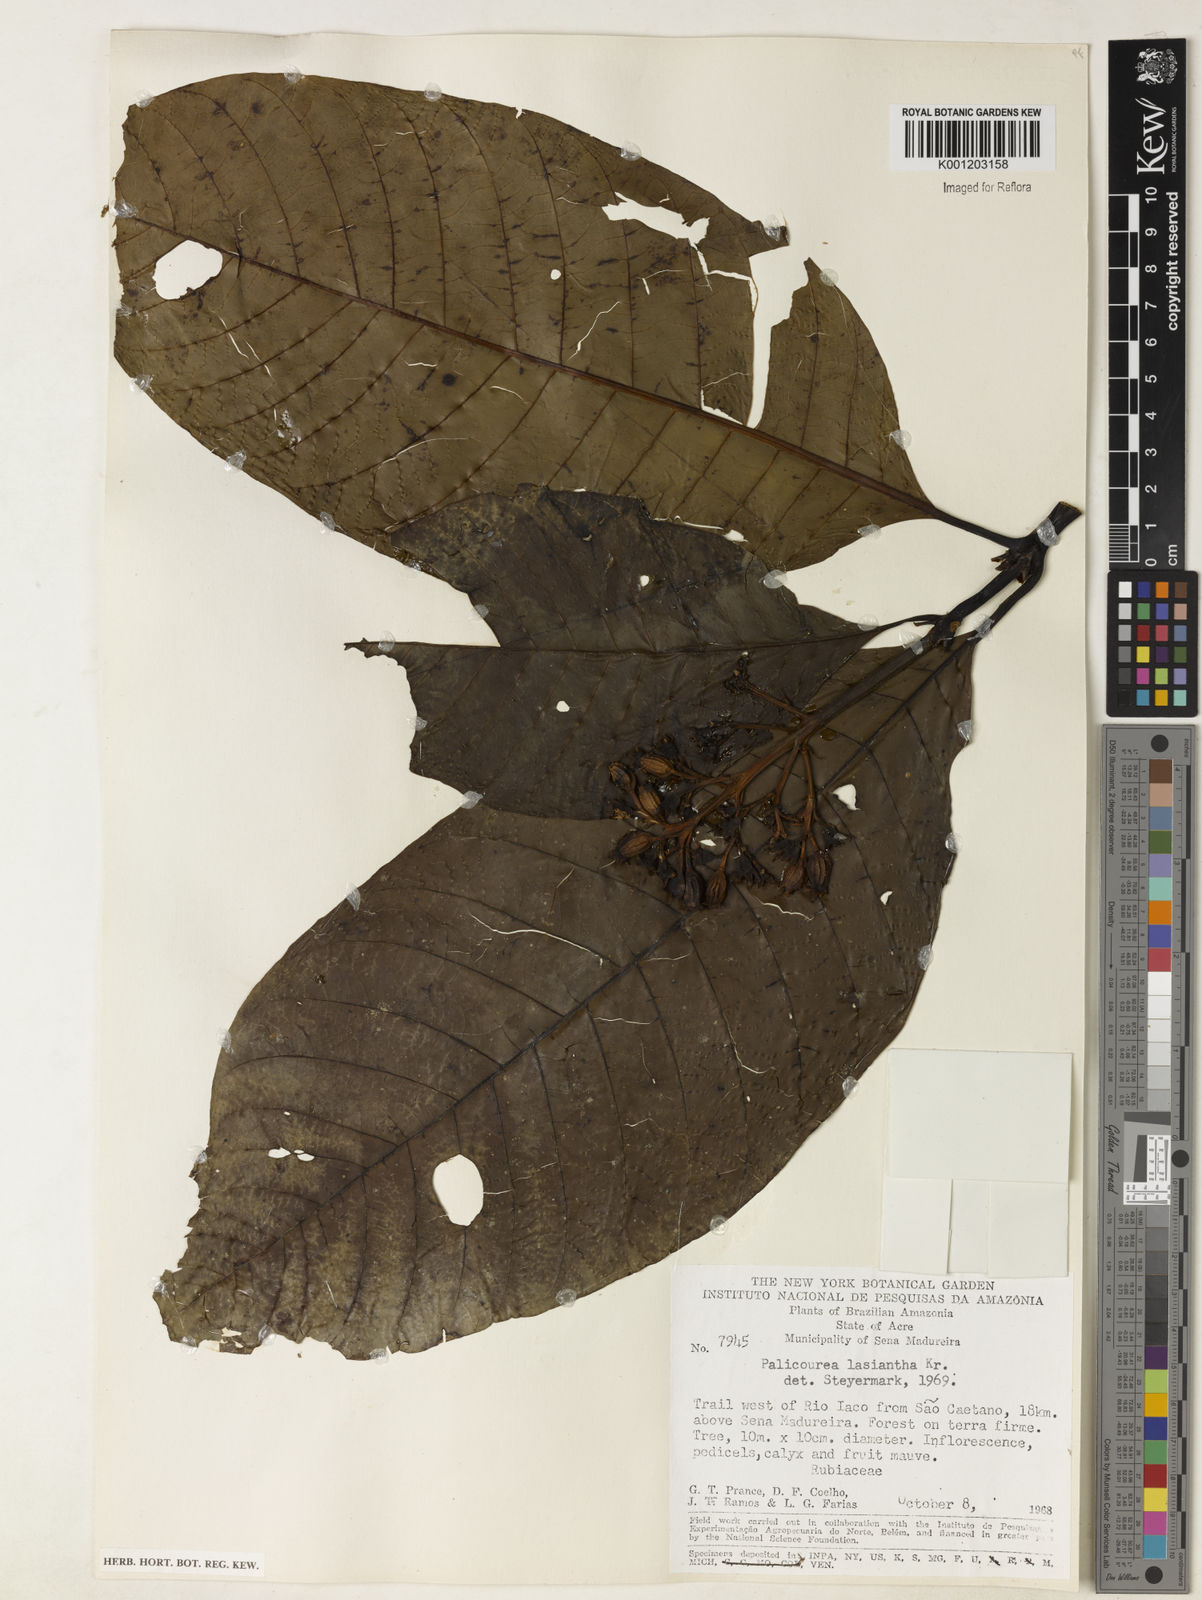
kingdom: Plantae
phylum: Tracheophyta
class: Magnoliopsida
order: Gentianales
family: Rubiaceae
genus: Palicourea
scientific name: Palicourea lasiantha
